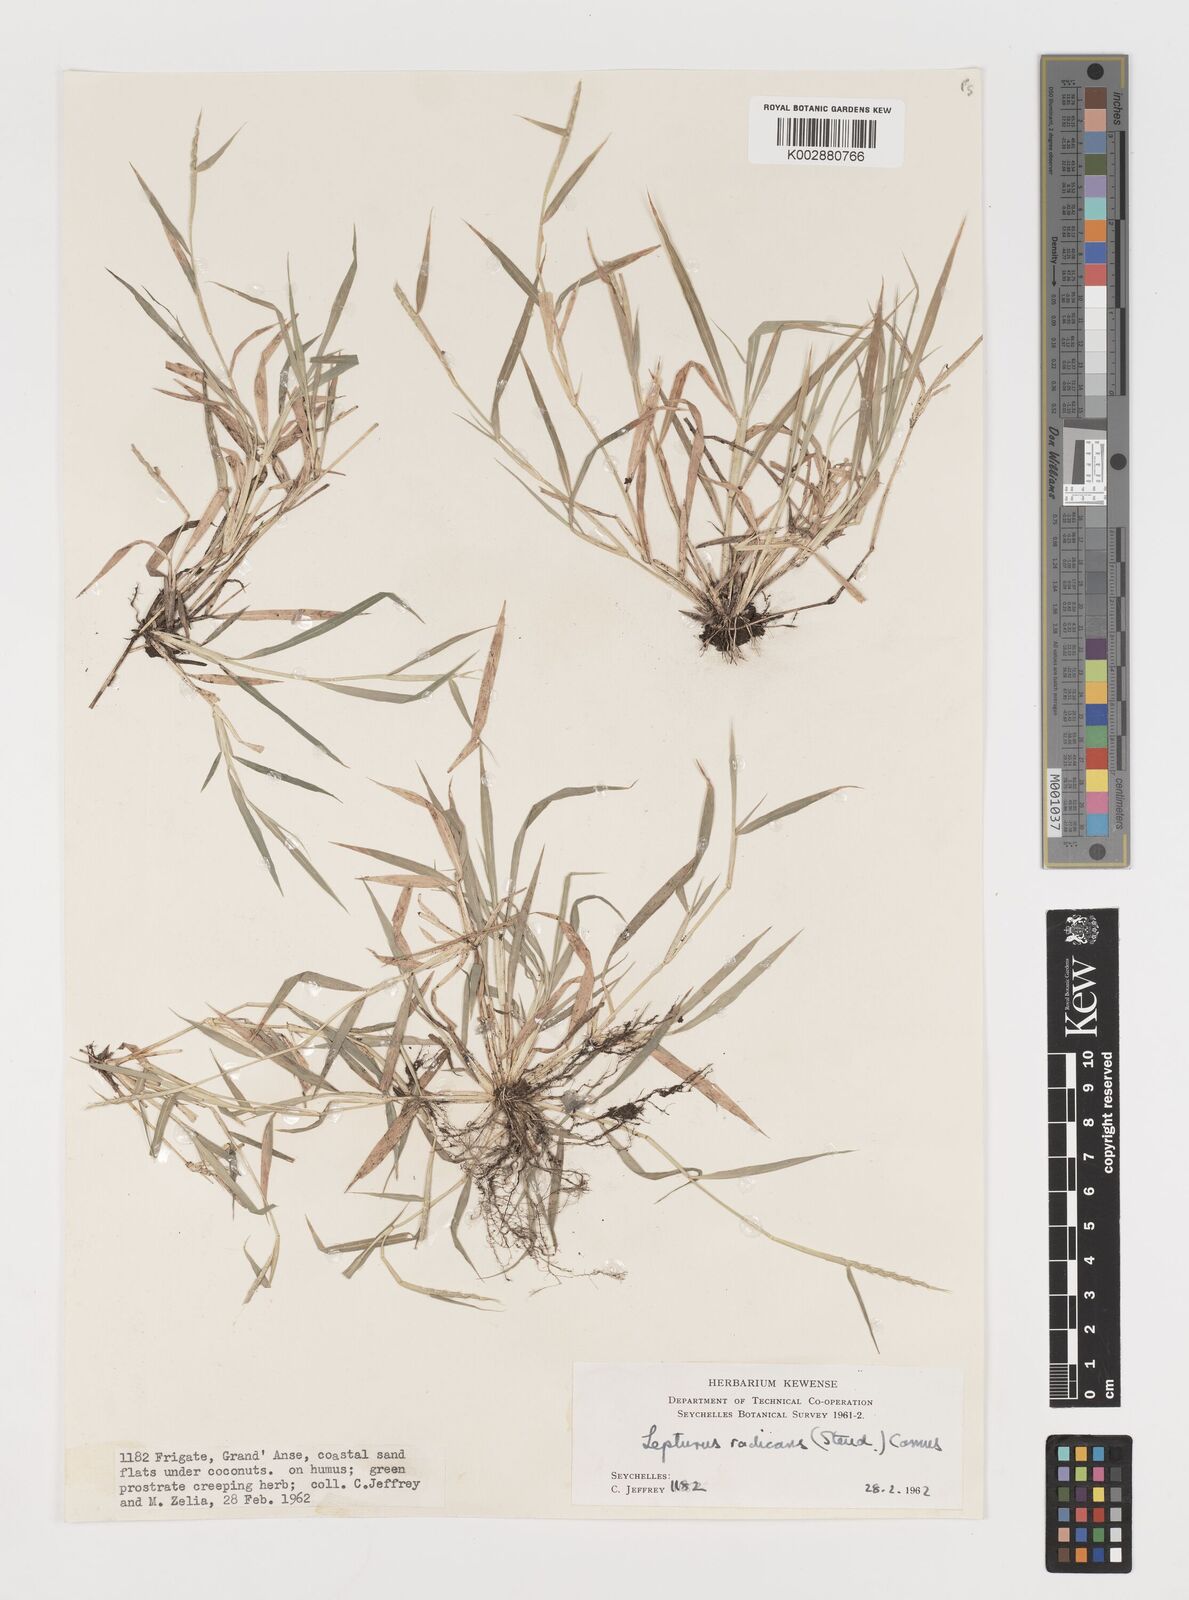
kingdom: Plantae
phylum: Tracheophyta
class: Liliopsida
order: Poales
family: Poaceae
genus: Lepturus
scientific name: Lepturus radicans
